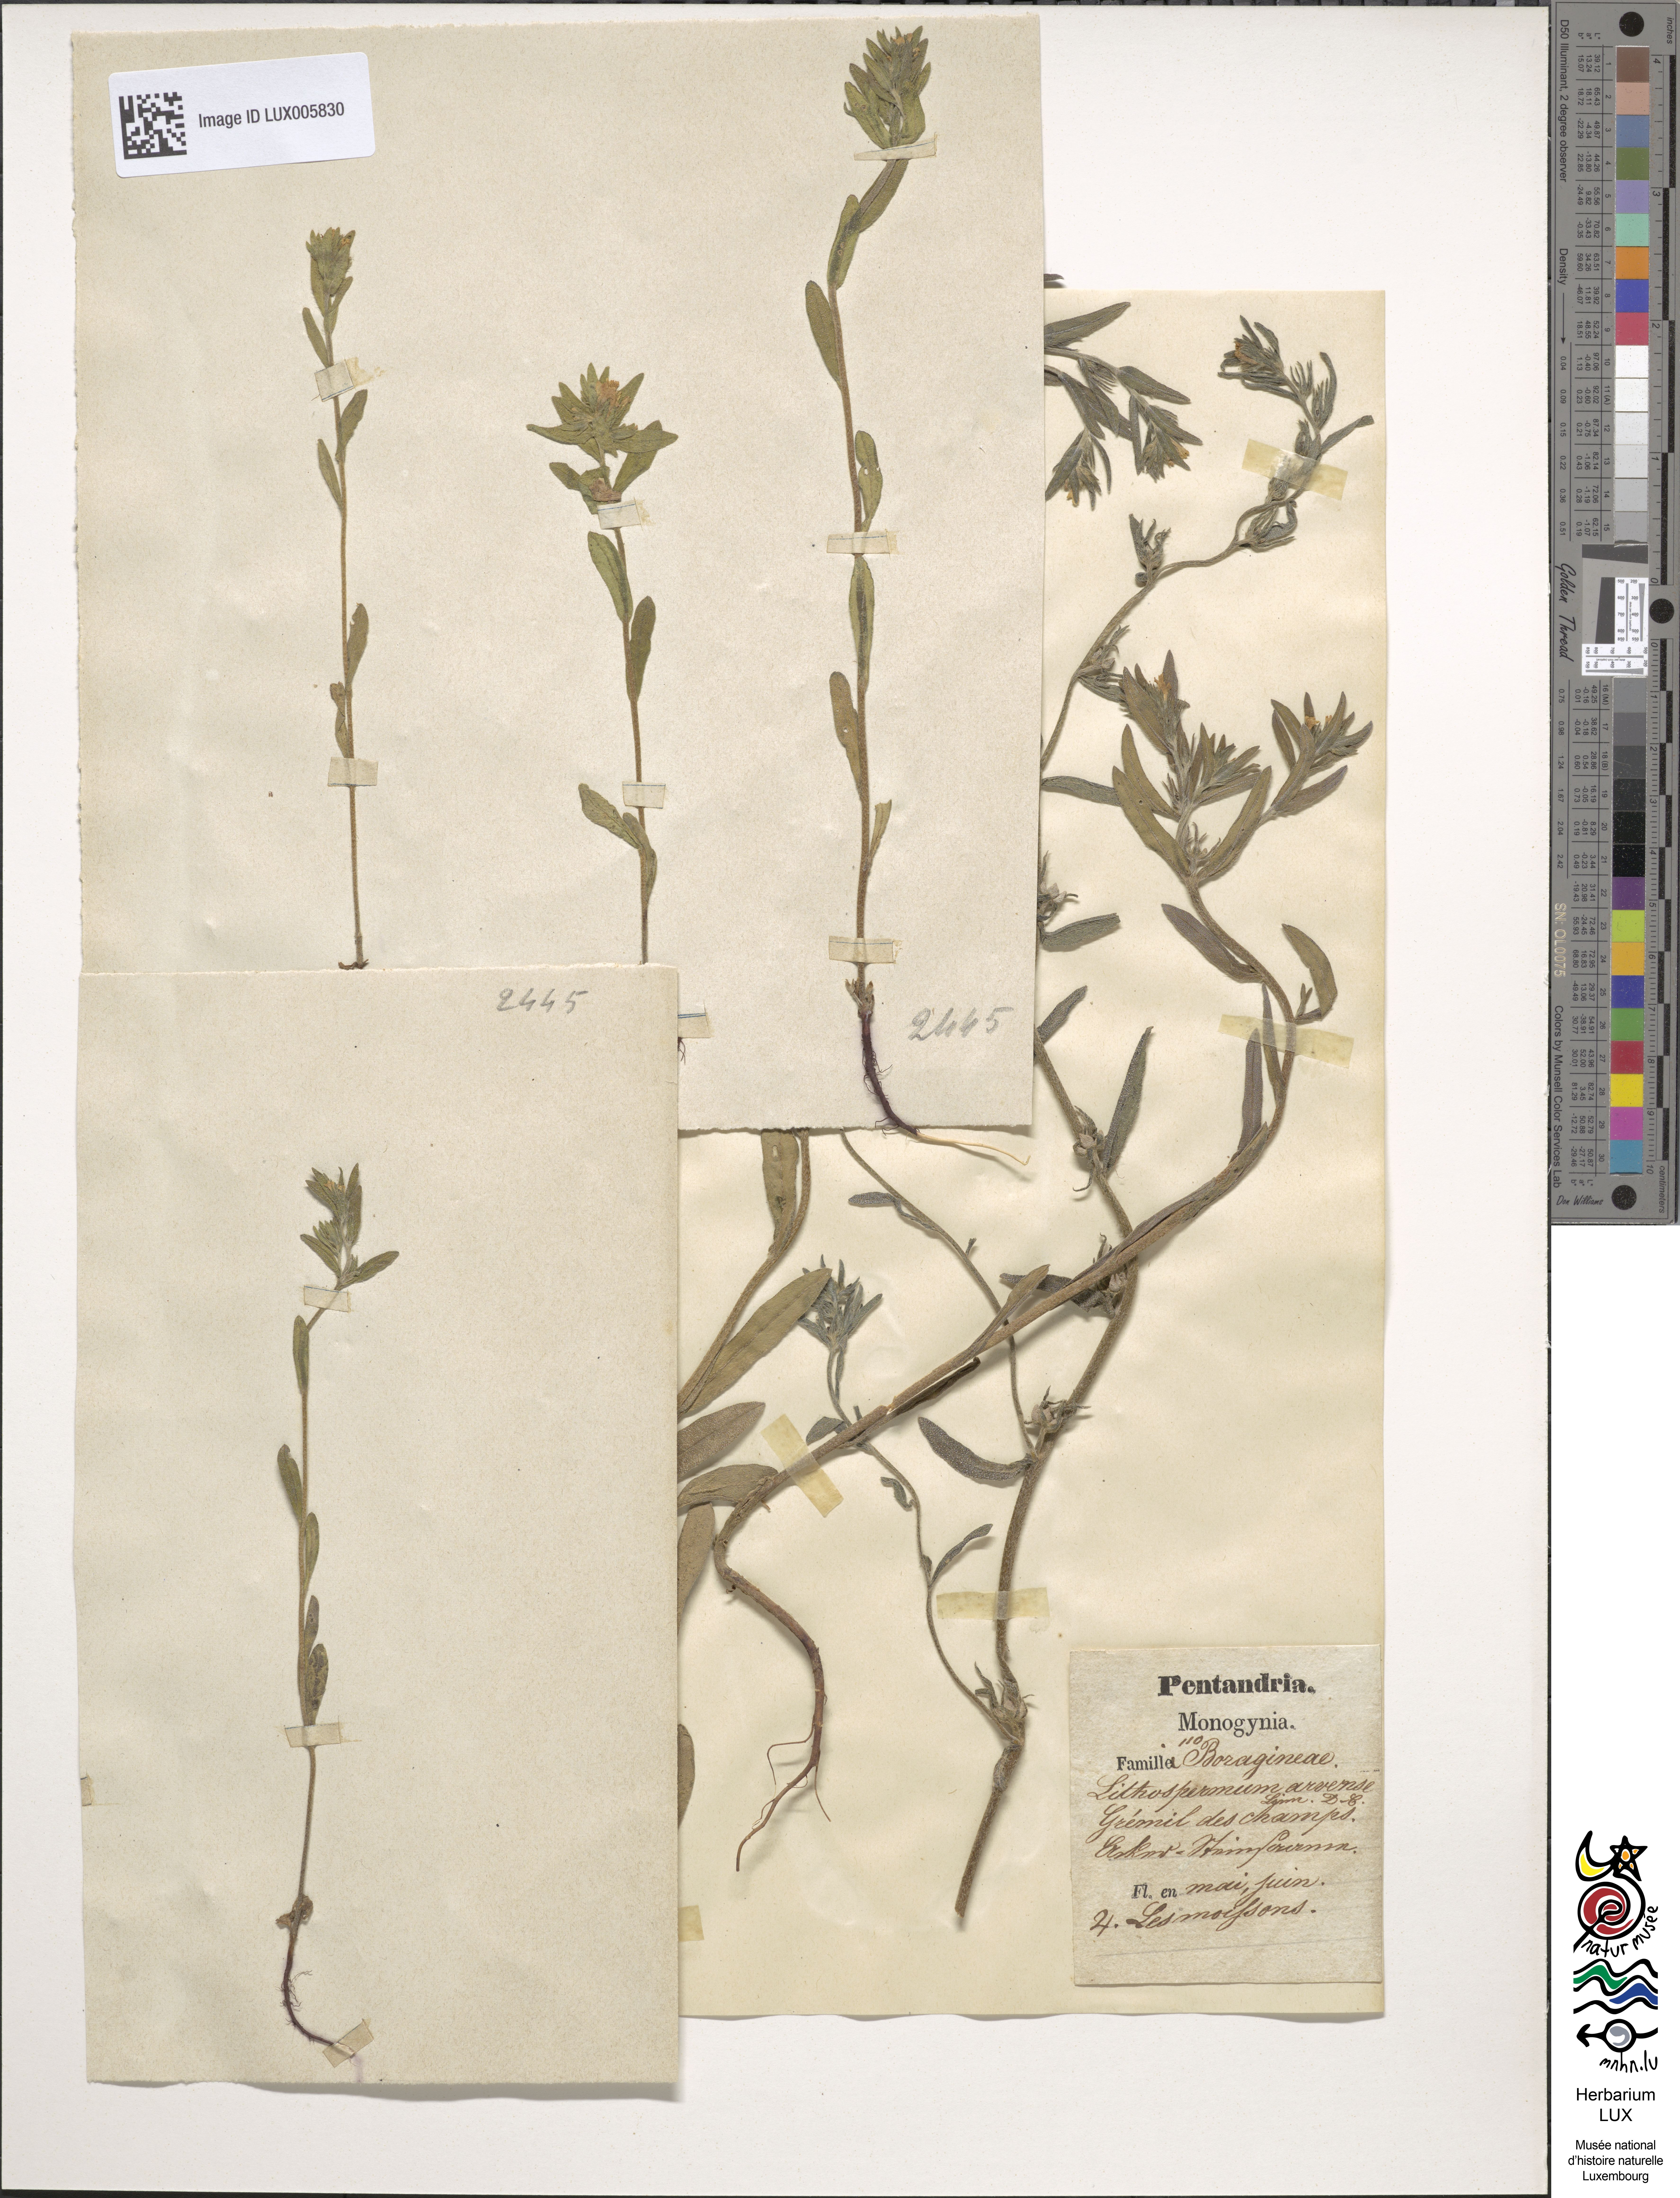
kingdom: Plantae
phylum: Tracheophyta
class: Magnoliopsida
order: Caryophyllales
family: Amaranthaceae
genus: Halimione
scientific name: Halimione portulacoides
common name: Sea-purslane
